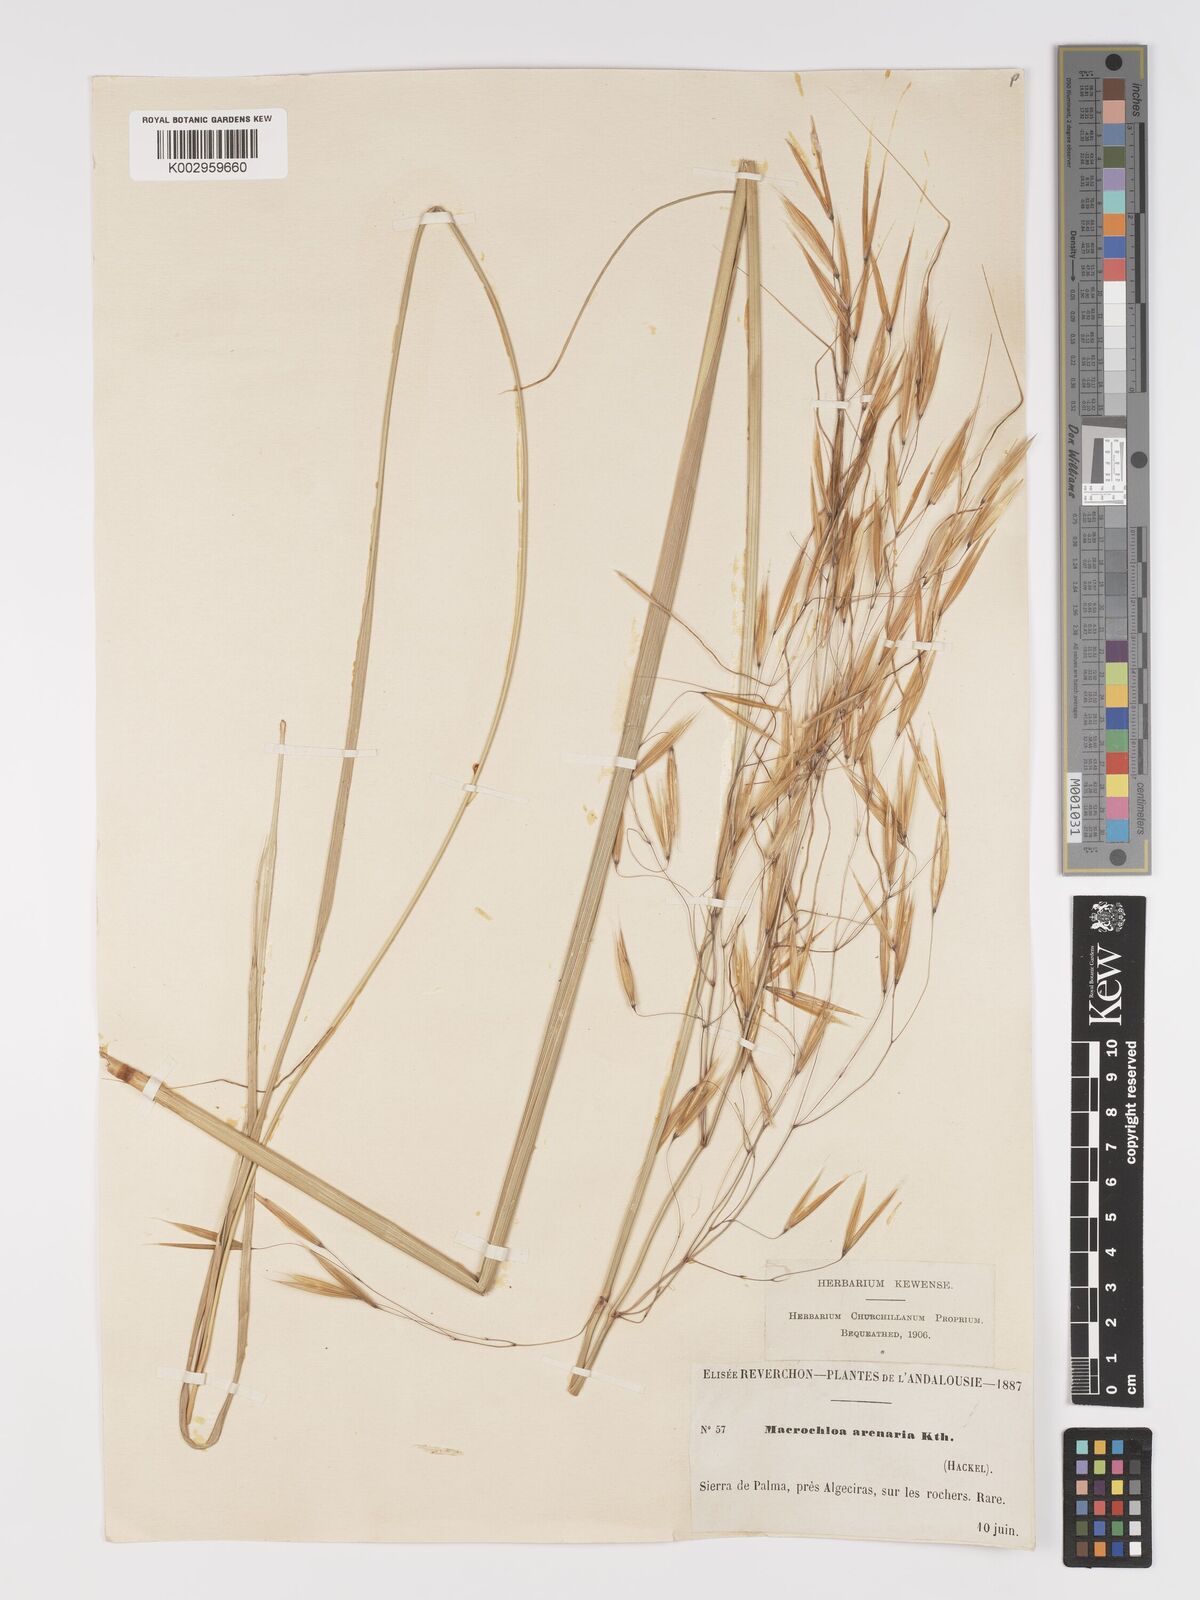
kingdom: Plantae
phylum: Tracheophyta
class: Liliopsida
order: Poales
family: Poaceae
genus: Celtica
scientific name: Celtica gigantea
